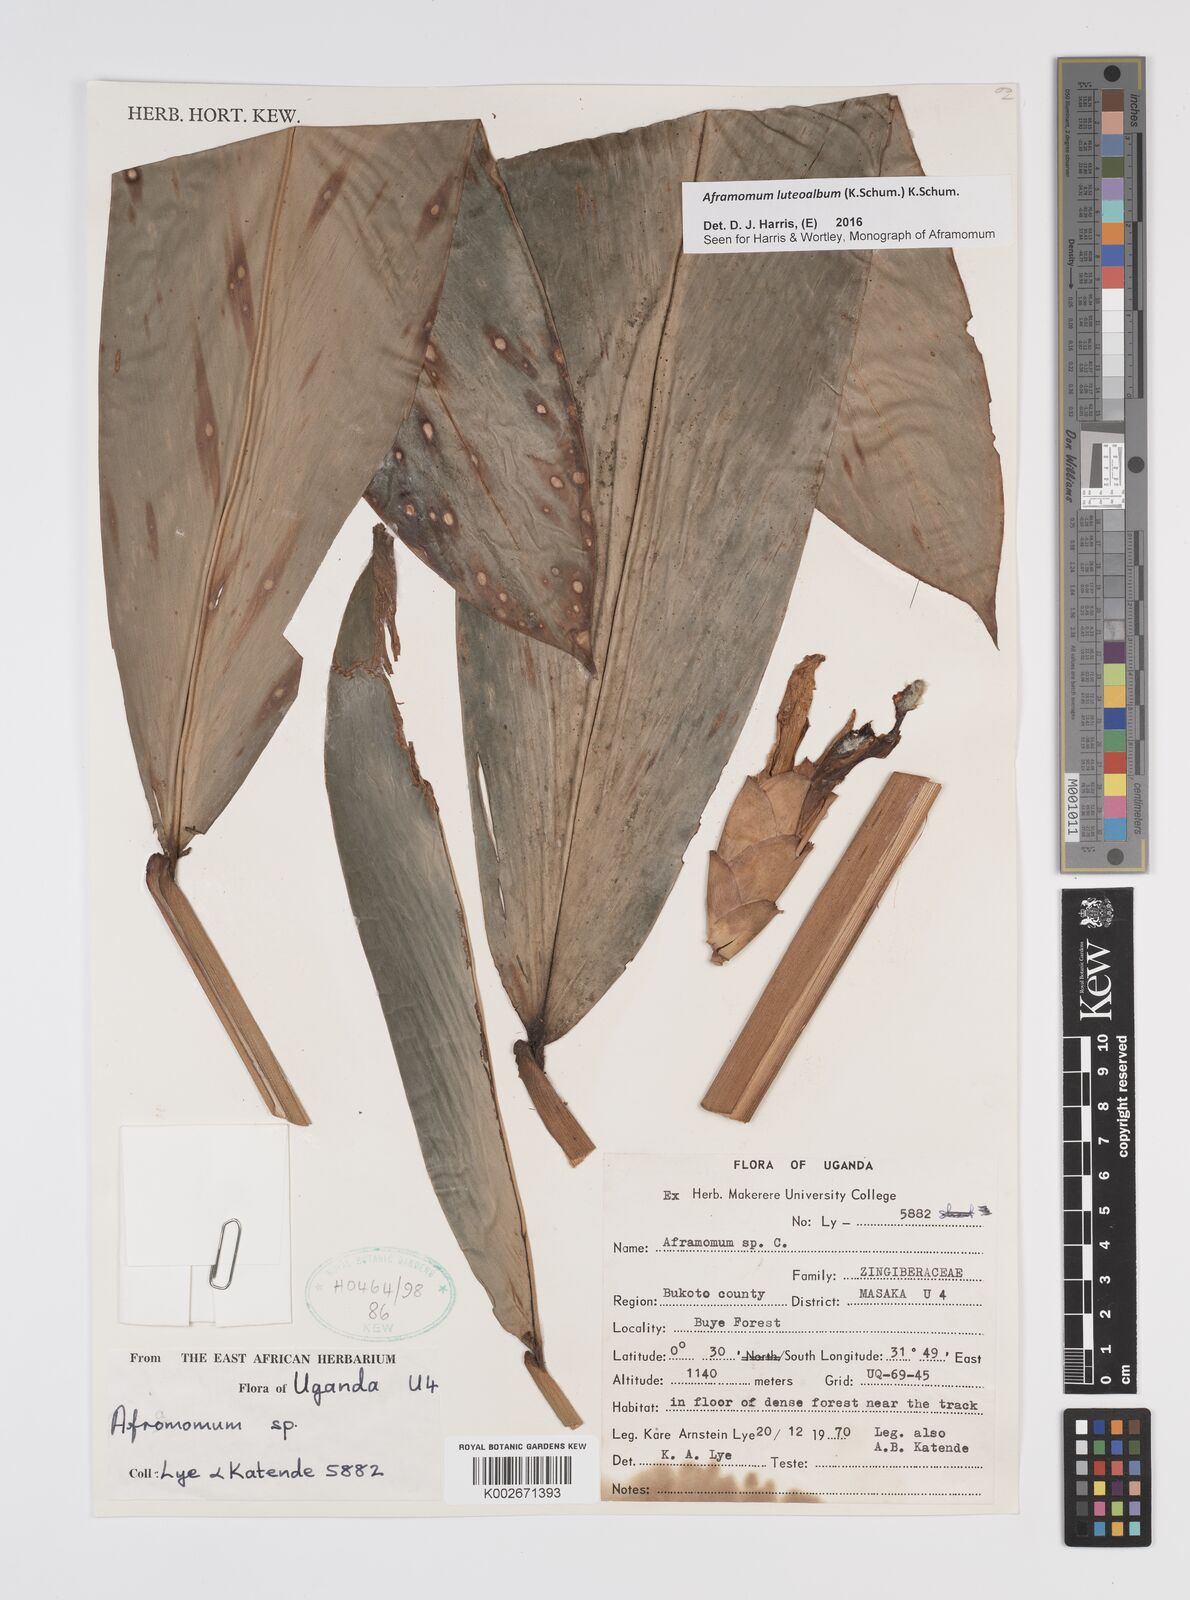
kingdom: Plantae
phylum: Tracheophyta
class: Liliopsida
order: Zingiberales
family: Zingiberaceae
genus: Aframomum
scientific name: Aframomum luteoalbum
